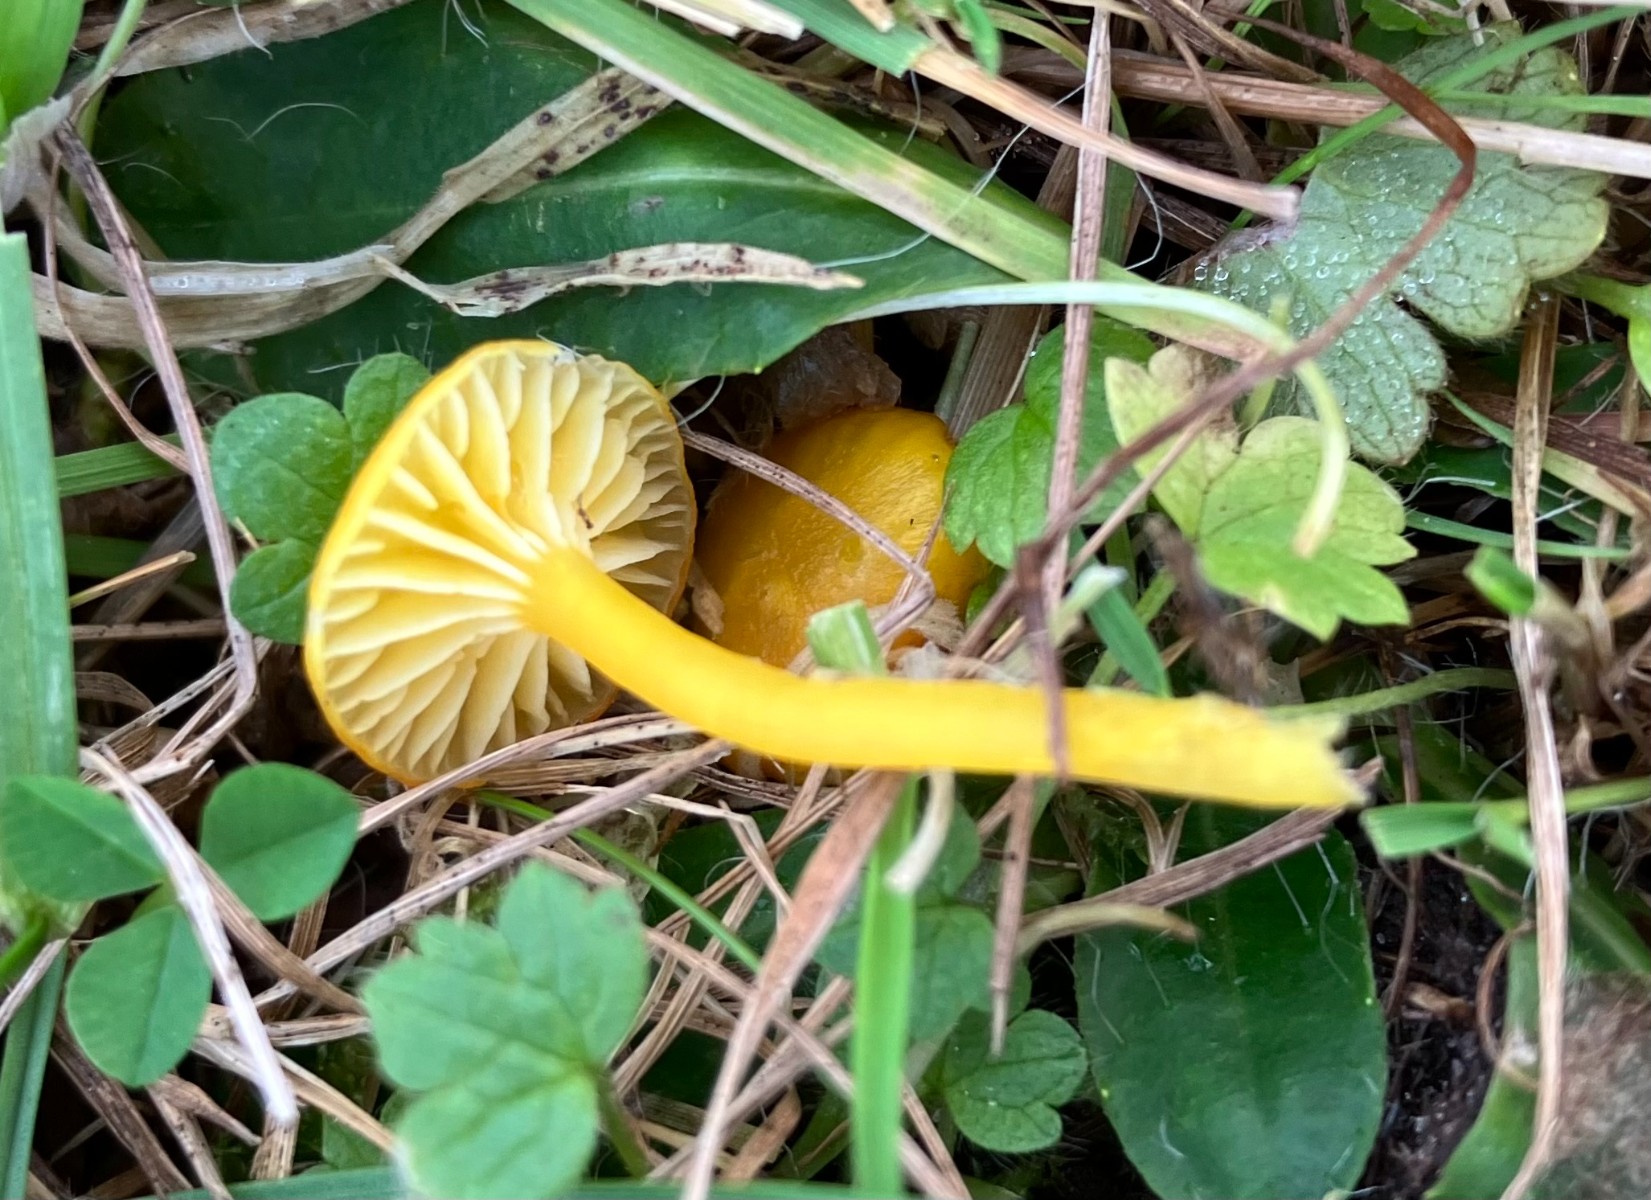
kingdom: Fungi
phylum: Basidiomycota
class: Agaricomycetes
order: Agaricales
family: Hygrophoraceae
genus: Hygrocybe
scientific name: Hygrocybe ceracea
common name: voksgul vokshat
